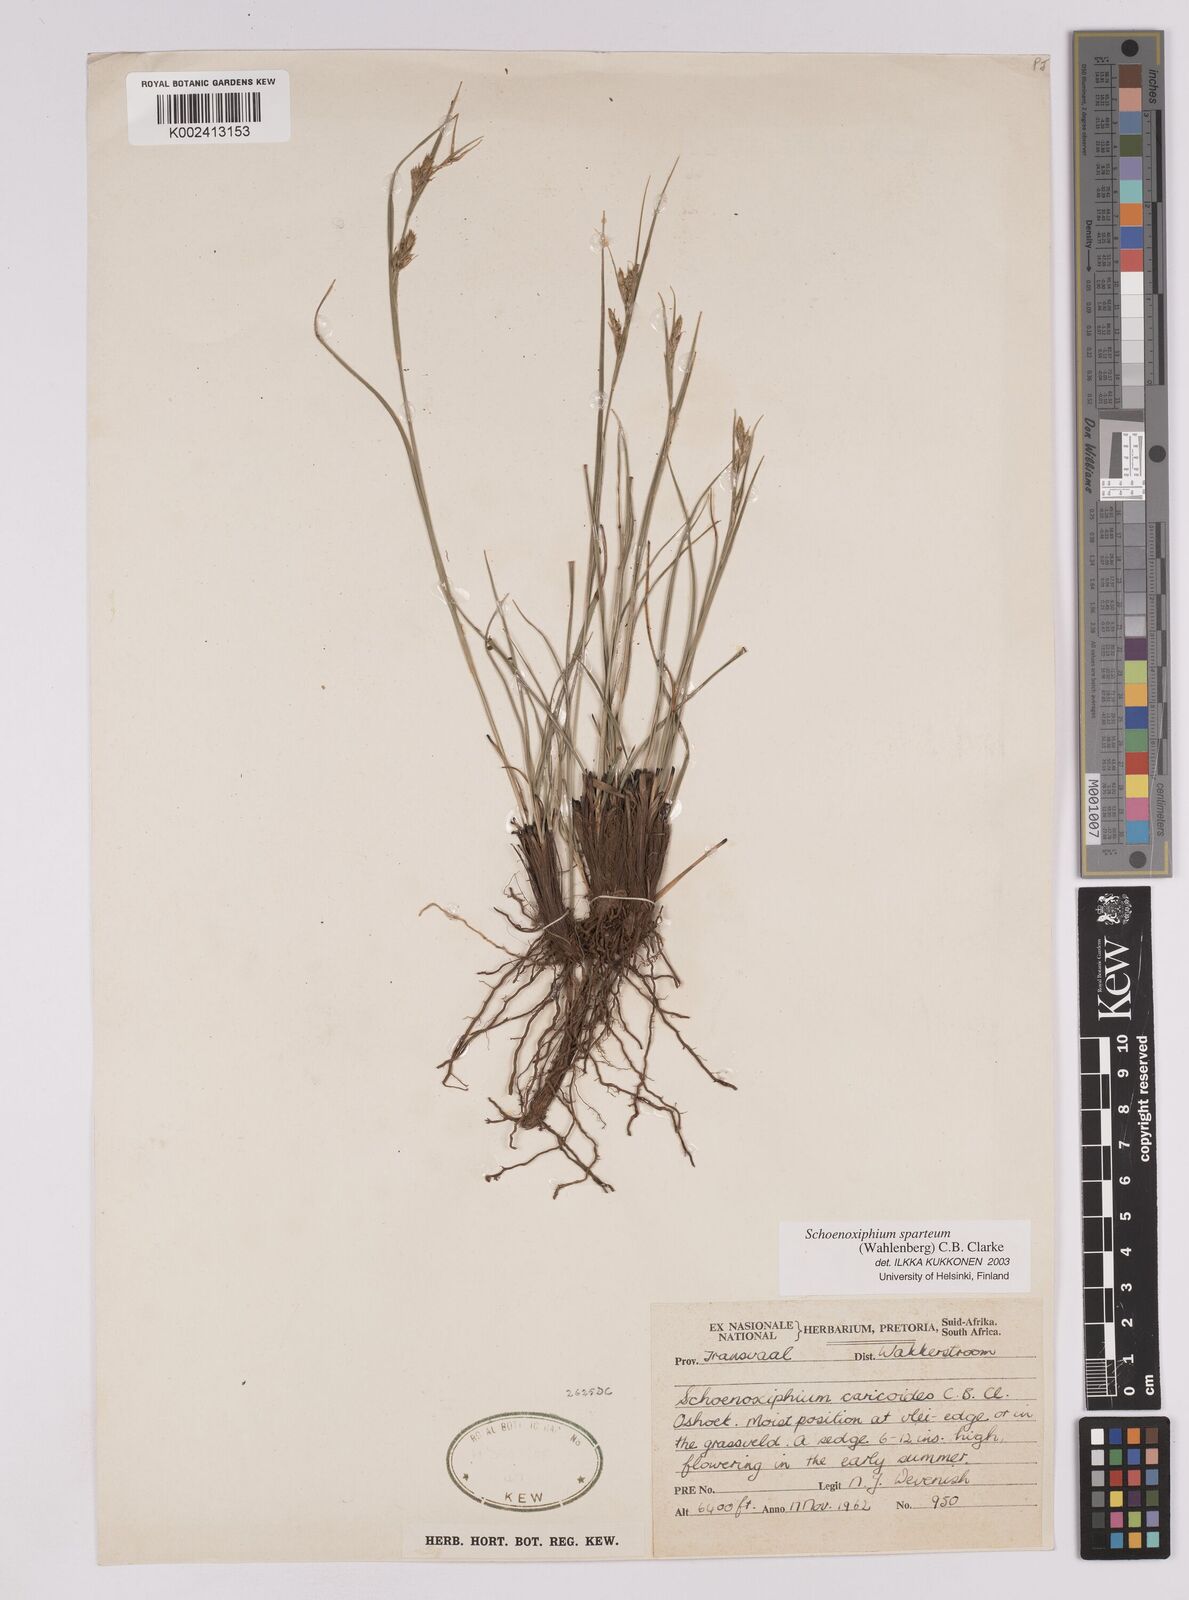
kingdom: Plantae
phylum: Tracheophyta
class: Liliopsida
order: Poales
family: Cyperaceae
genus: Carex
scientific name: Carex spartea
